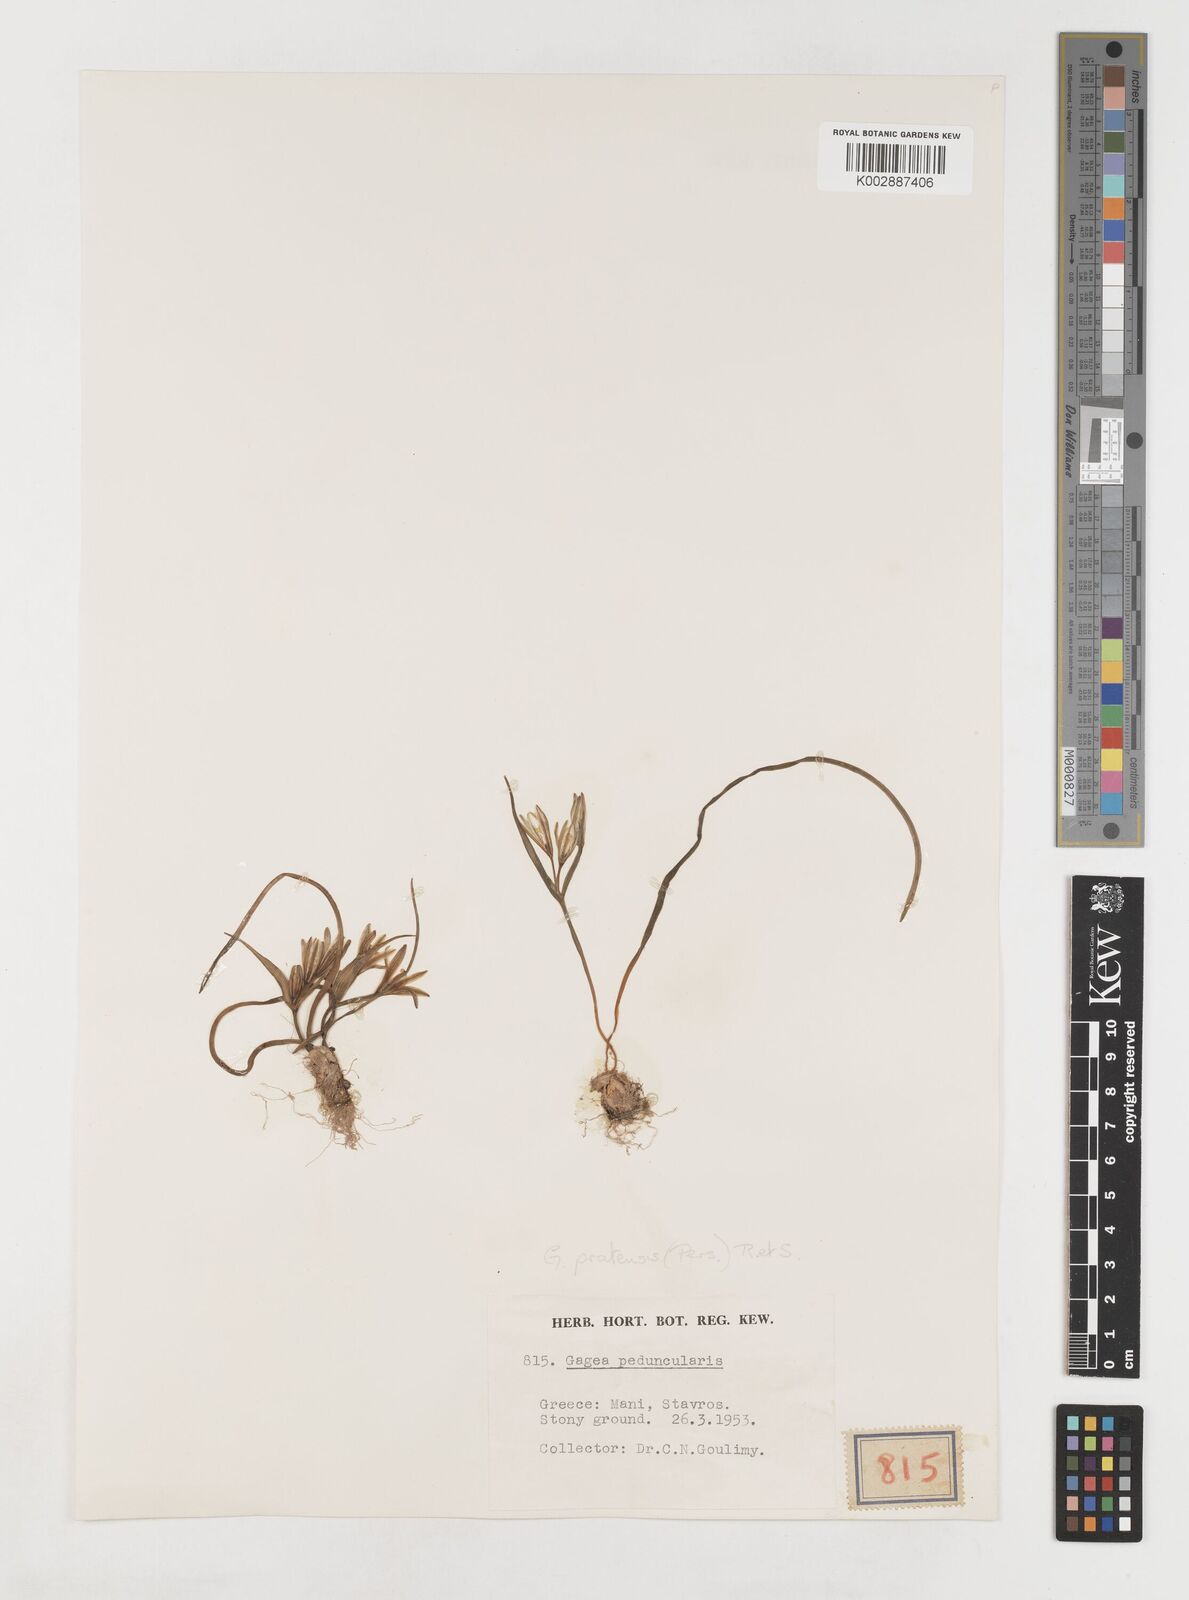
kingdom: Plantae
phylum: Tracheophyta
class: Liliopsida
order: Liliales
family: Liliaceae
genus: Gagea
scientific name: Gagea pratensis
